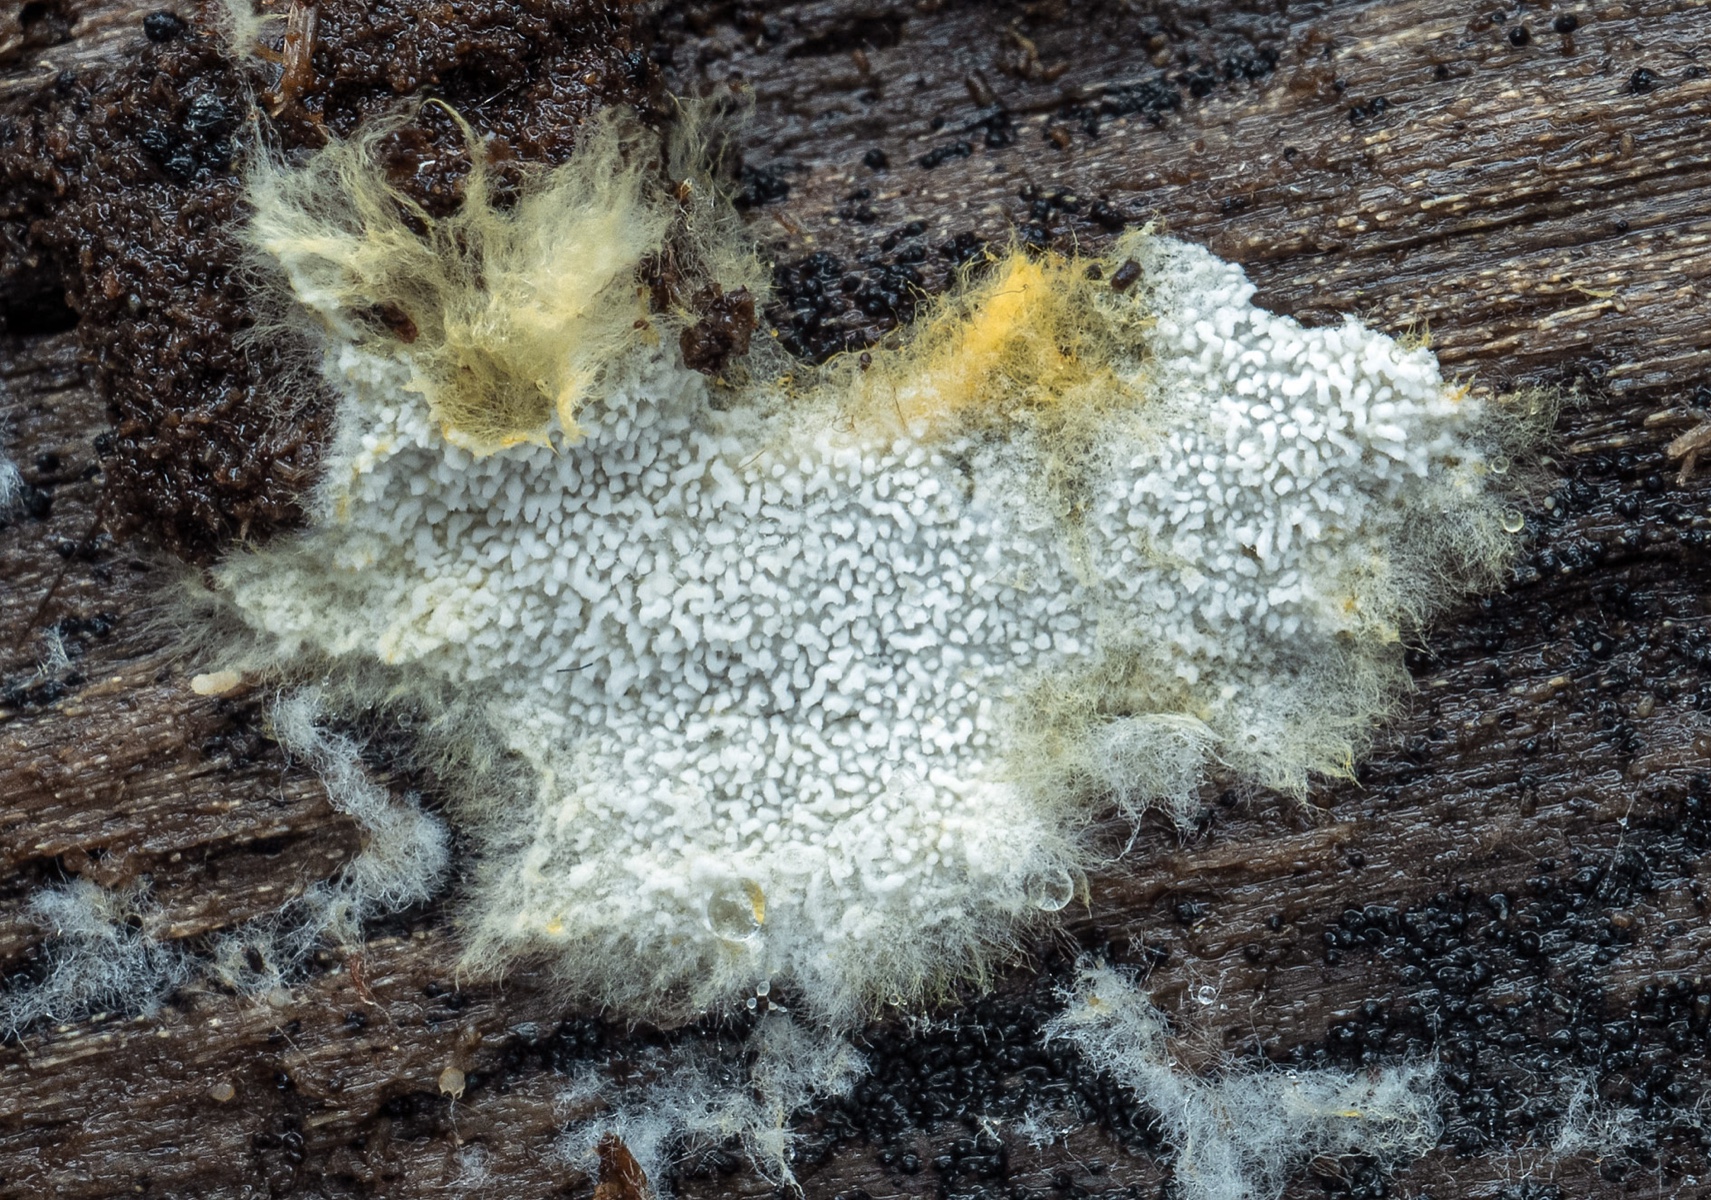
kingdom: Fungi
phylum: Basidiomycota
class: Agaricomycetes
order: Cantharellales
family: Hydnaceae
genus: Sistotrema
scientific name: Sistotrema muscicola
